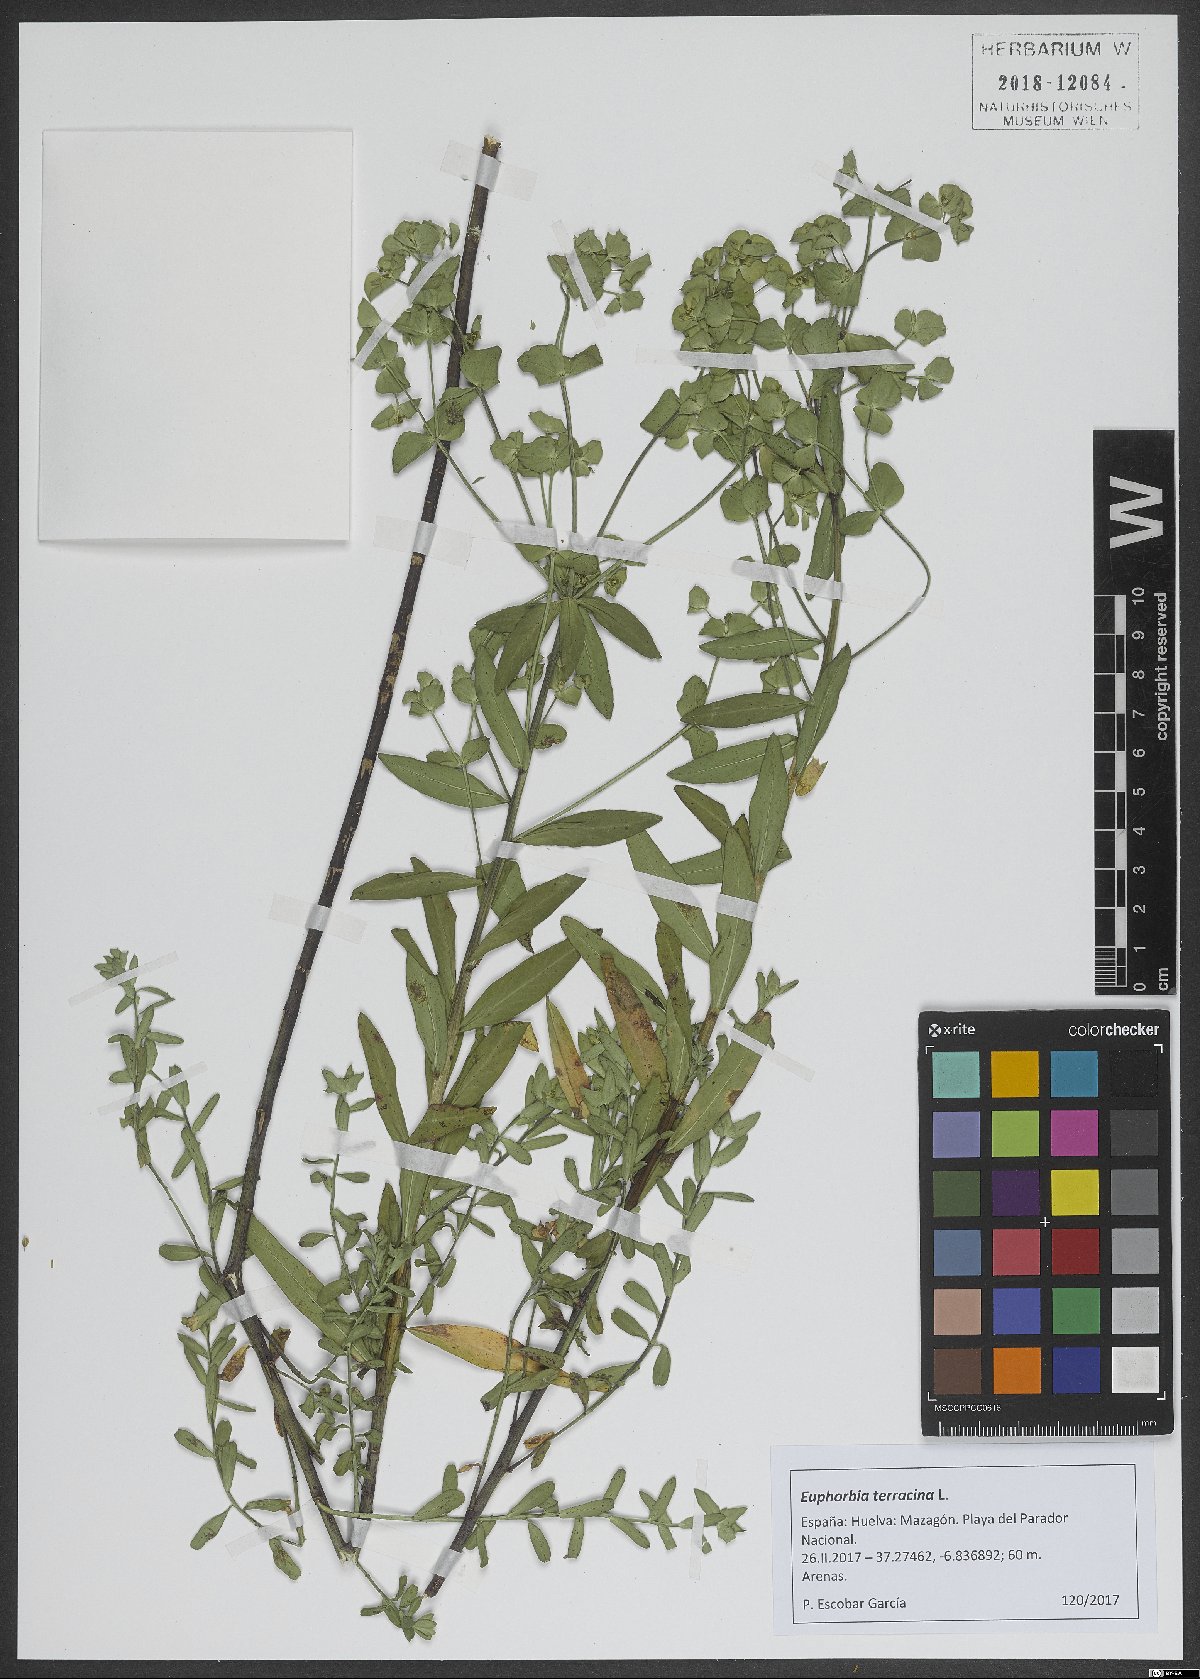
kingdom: Plantae
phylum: Tracheophyta
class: Magnoliopsida
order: Malpighiales
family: Euphorbiaceae
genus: Euphorbia
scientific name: Euphorbia terracina
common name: Geraldton carnation weed
